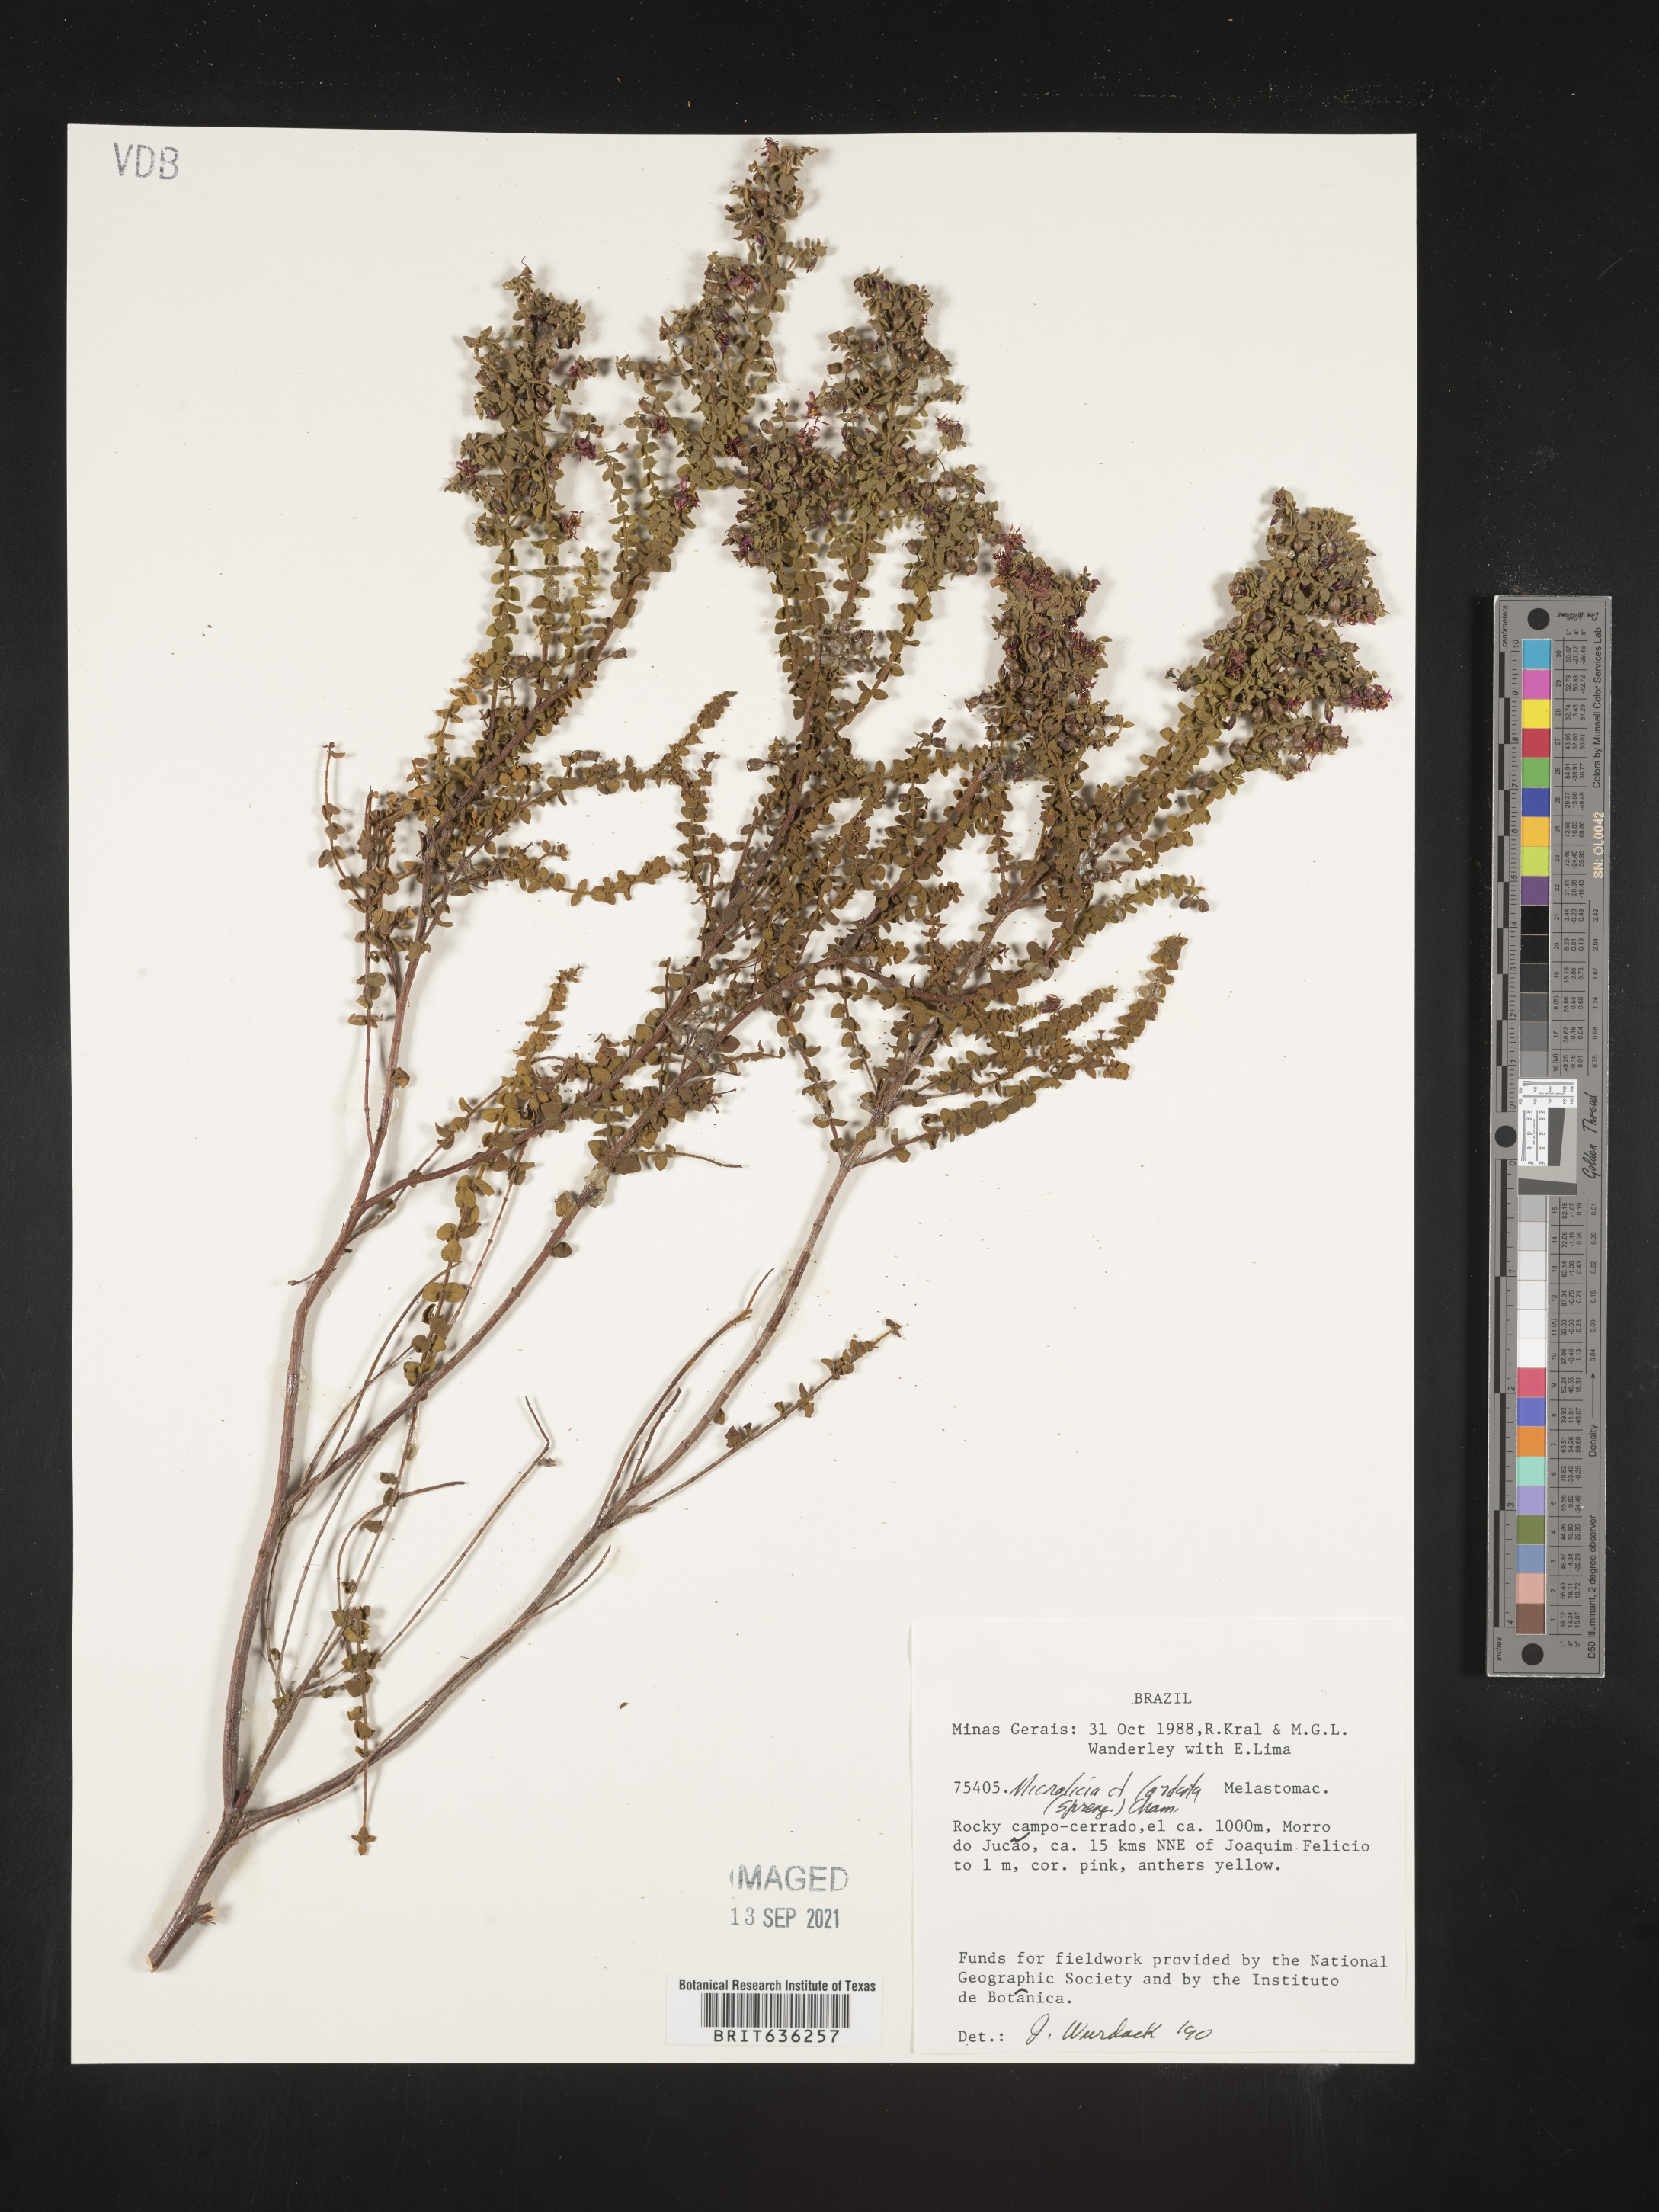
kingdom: Plantae
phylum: Tracheophyta
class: Magnoliopsida
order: Myrtales
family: Melastomataceae
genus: Microlicia
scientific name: Microlicia
